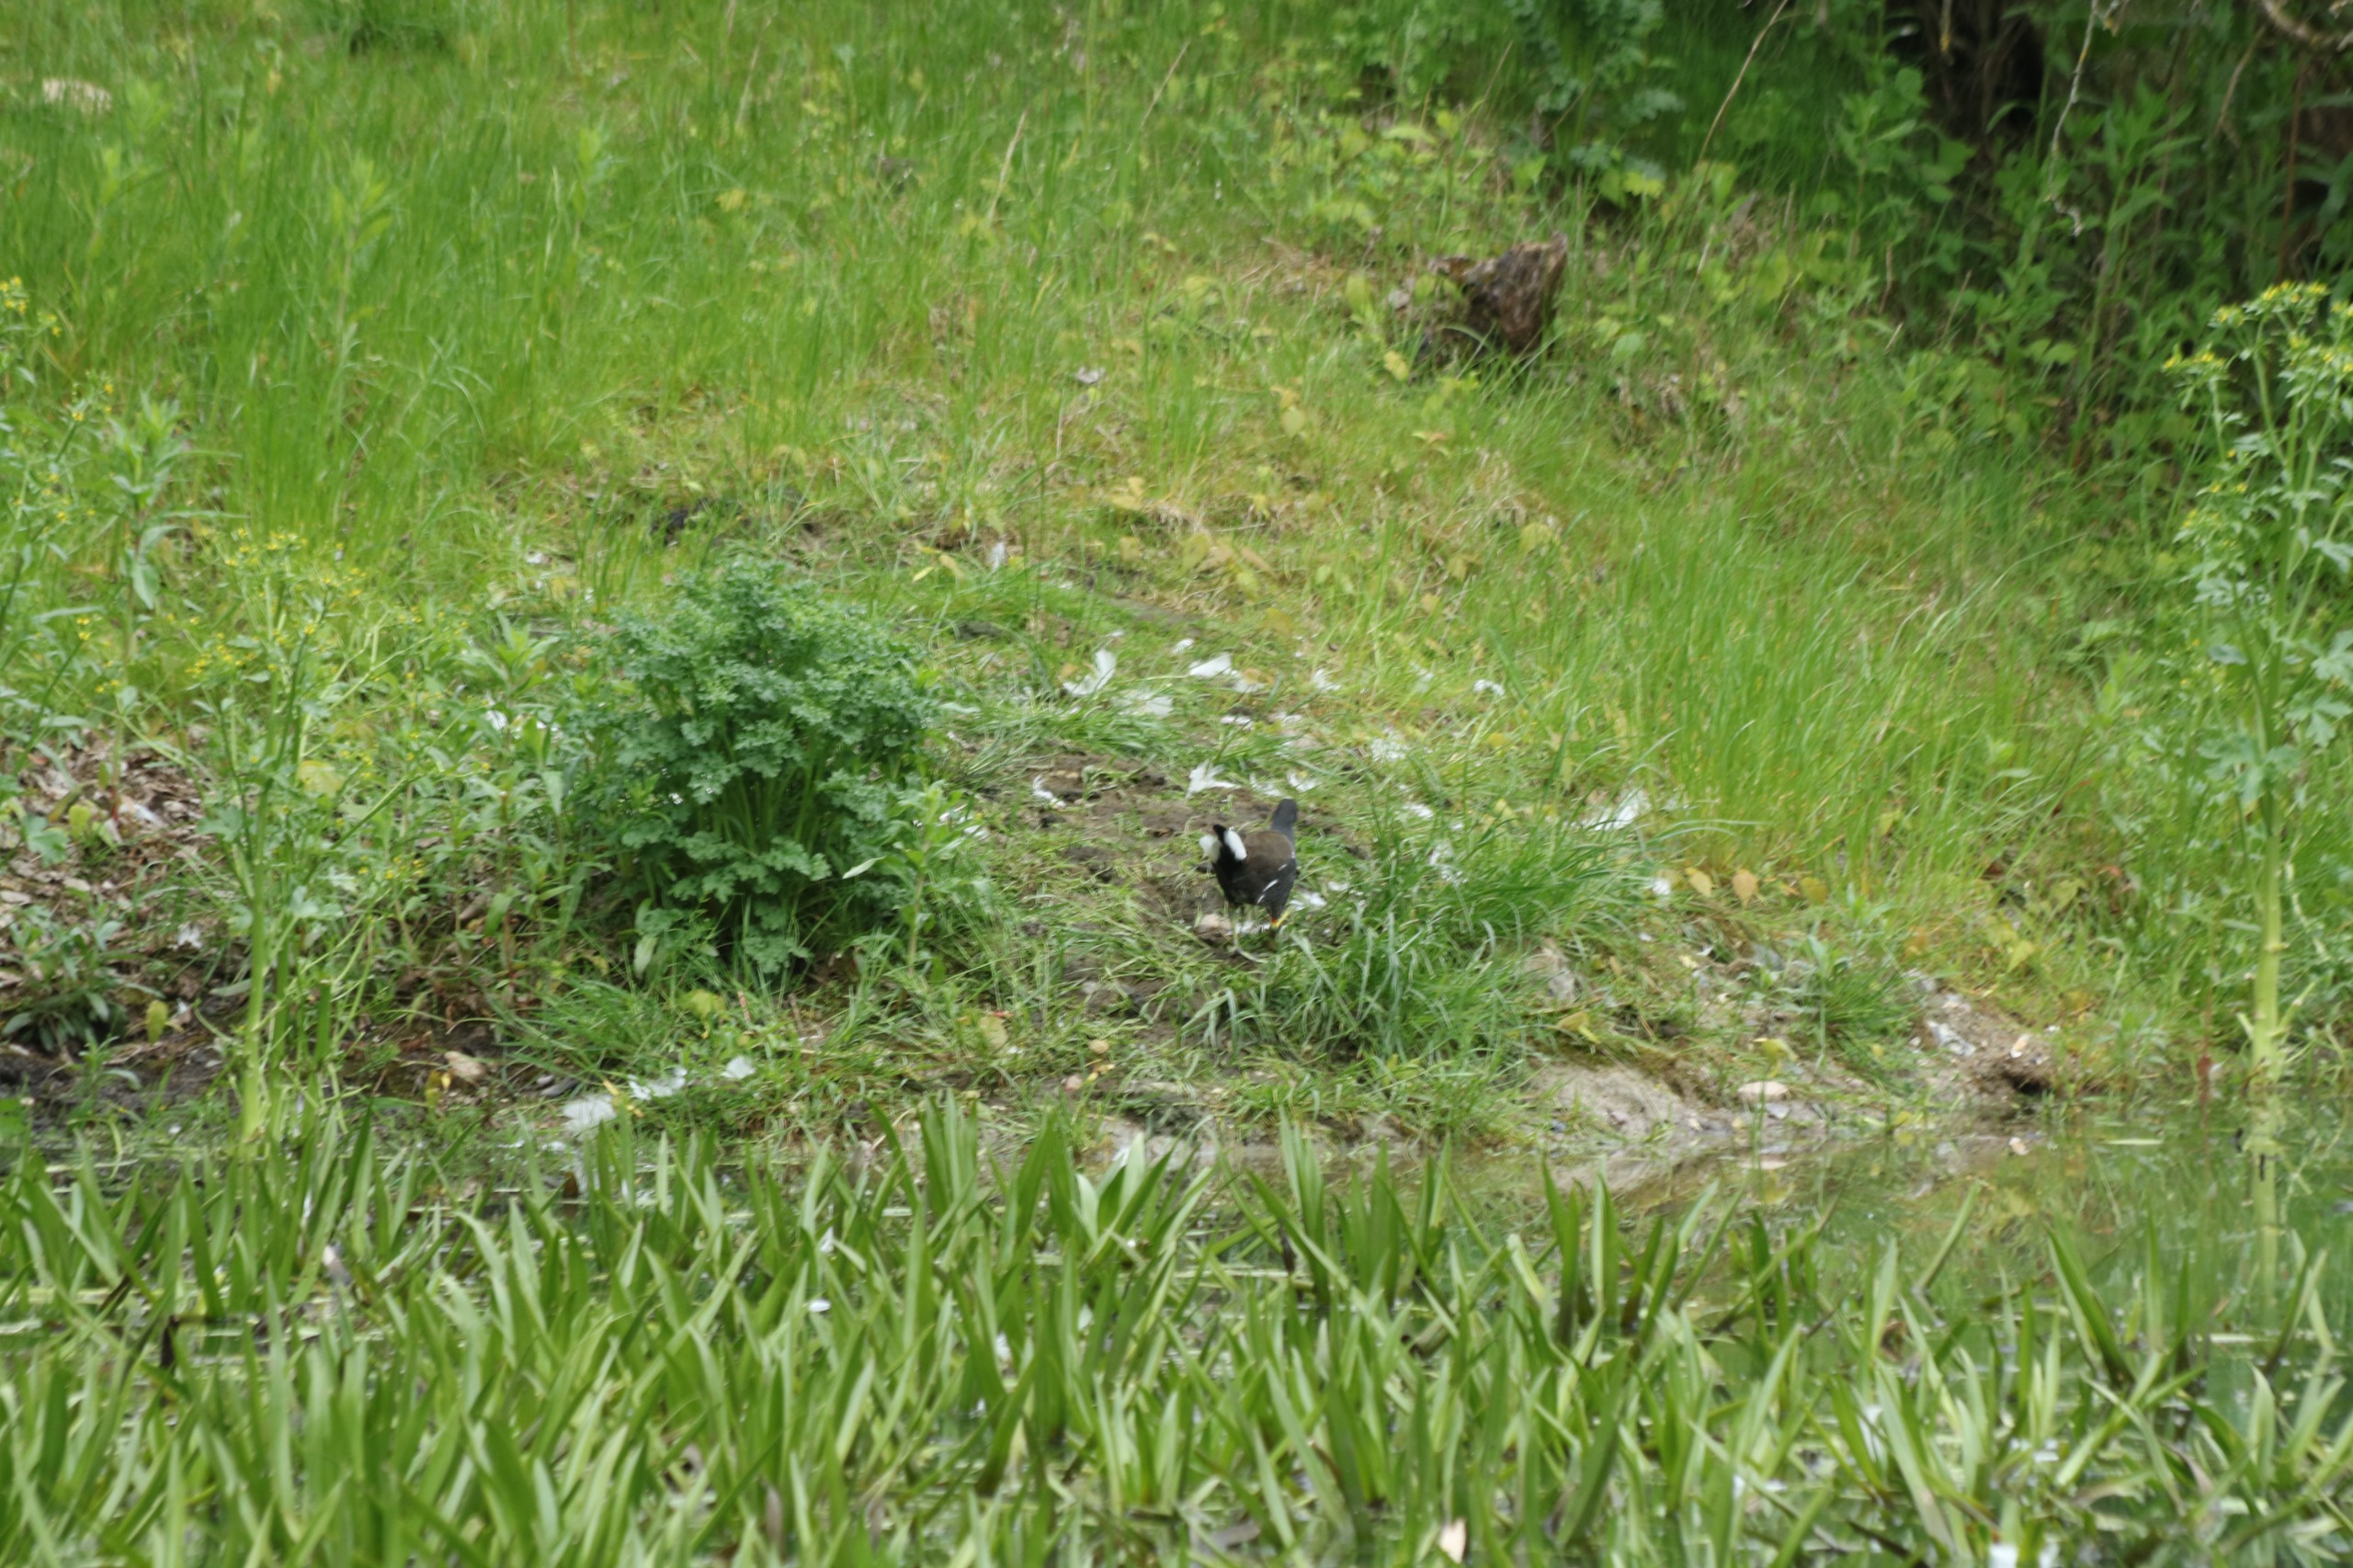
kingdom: Animalia
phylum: Chordata
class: Aves
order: Gruiformes
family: Rallidae
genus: Gallinula
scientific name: Gallinula chloropus
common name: Grønbenet rørhøne
